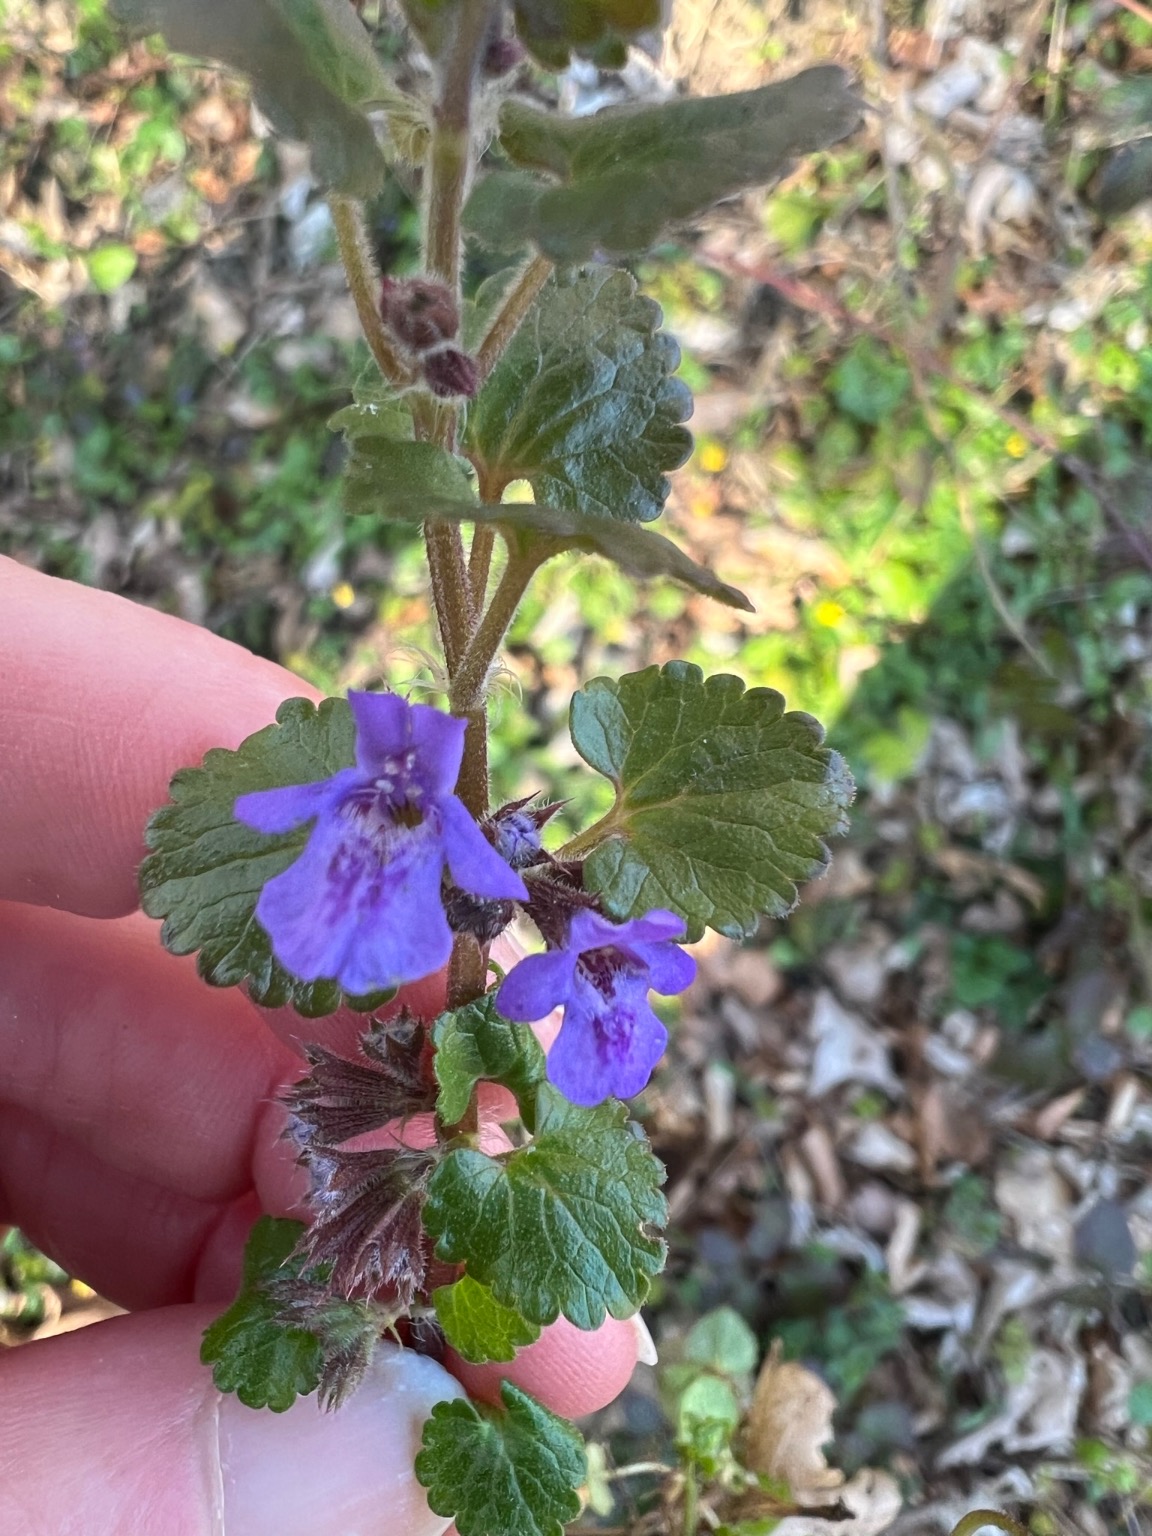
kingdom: Plantae
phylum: Tracheophyta
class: Magnoliopsida
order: Lamiales
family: Lamiaceae
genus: Glechoma
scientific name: Glechoma hederacea
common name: Korsknap
